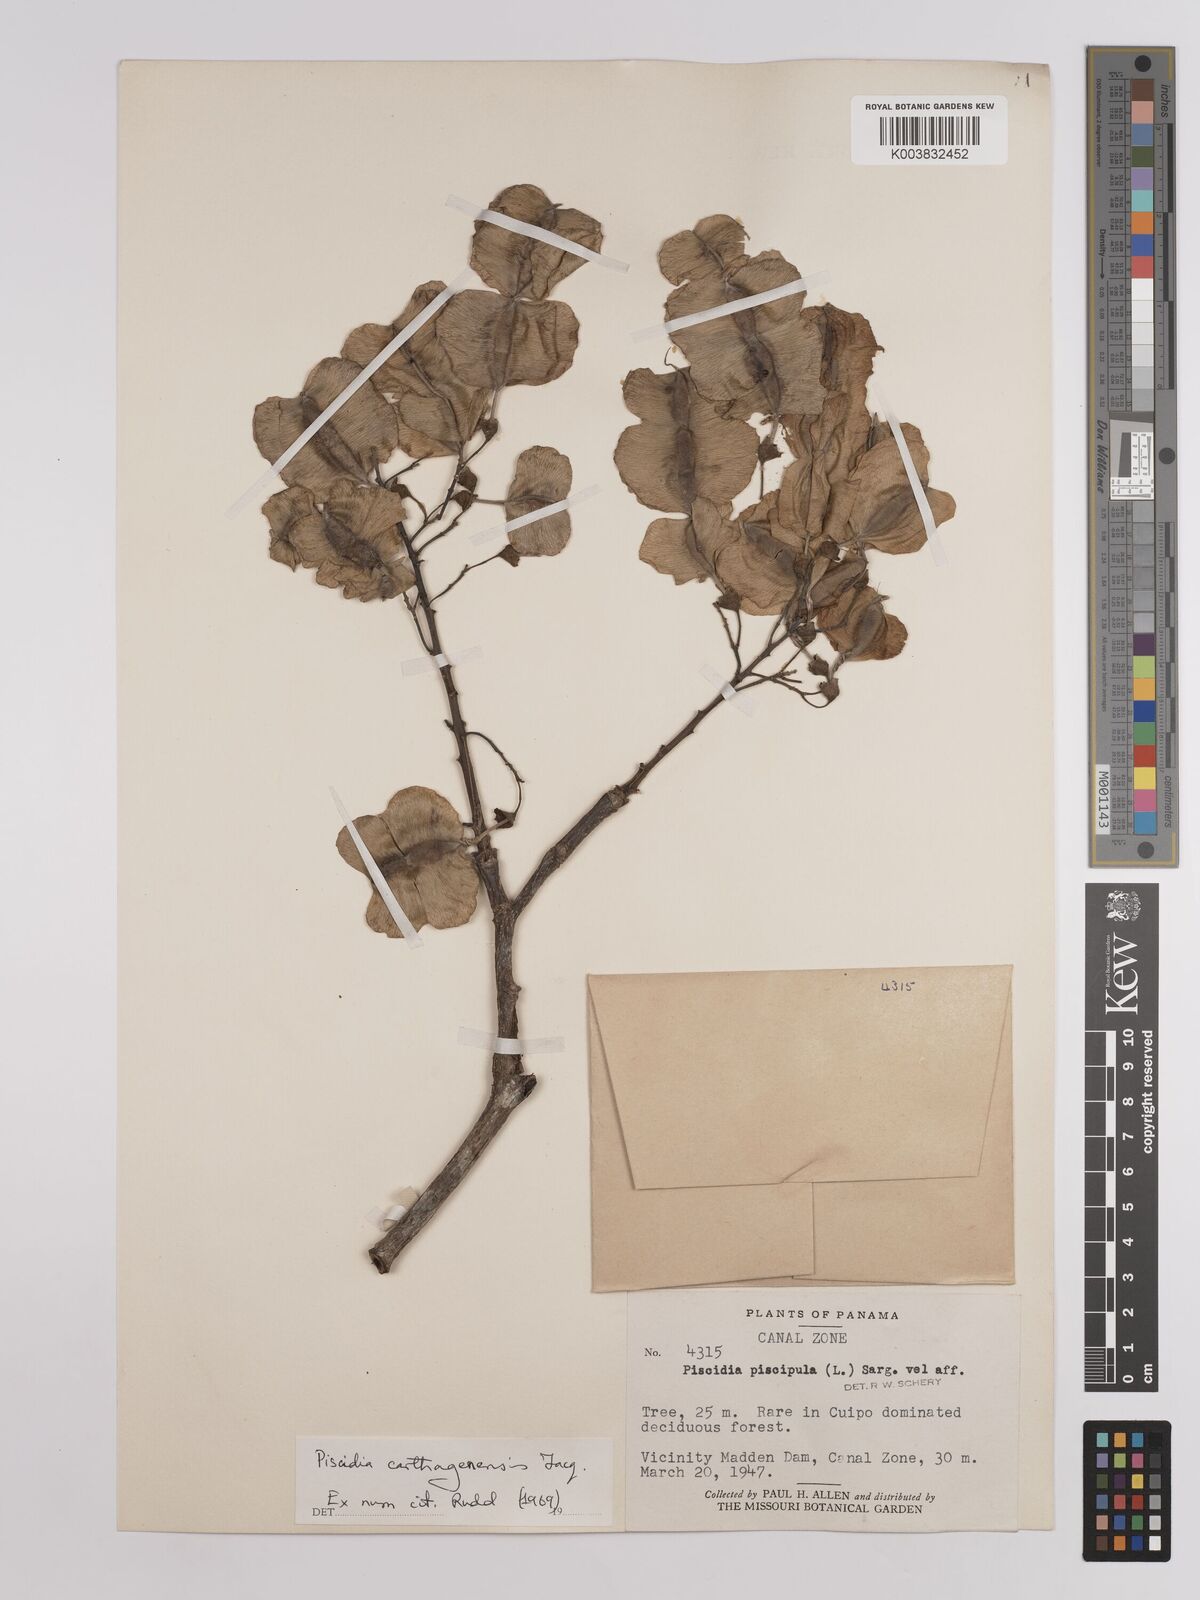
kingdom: Plantae
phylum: Tracheophyta
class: Magnoliopsida
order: Fabales
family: Fabaceae
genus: Piscidia
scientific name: Piscidia carthagenensis
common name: Stinkwood
